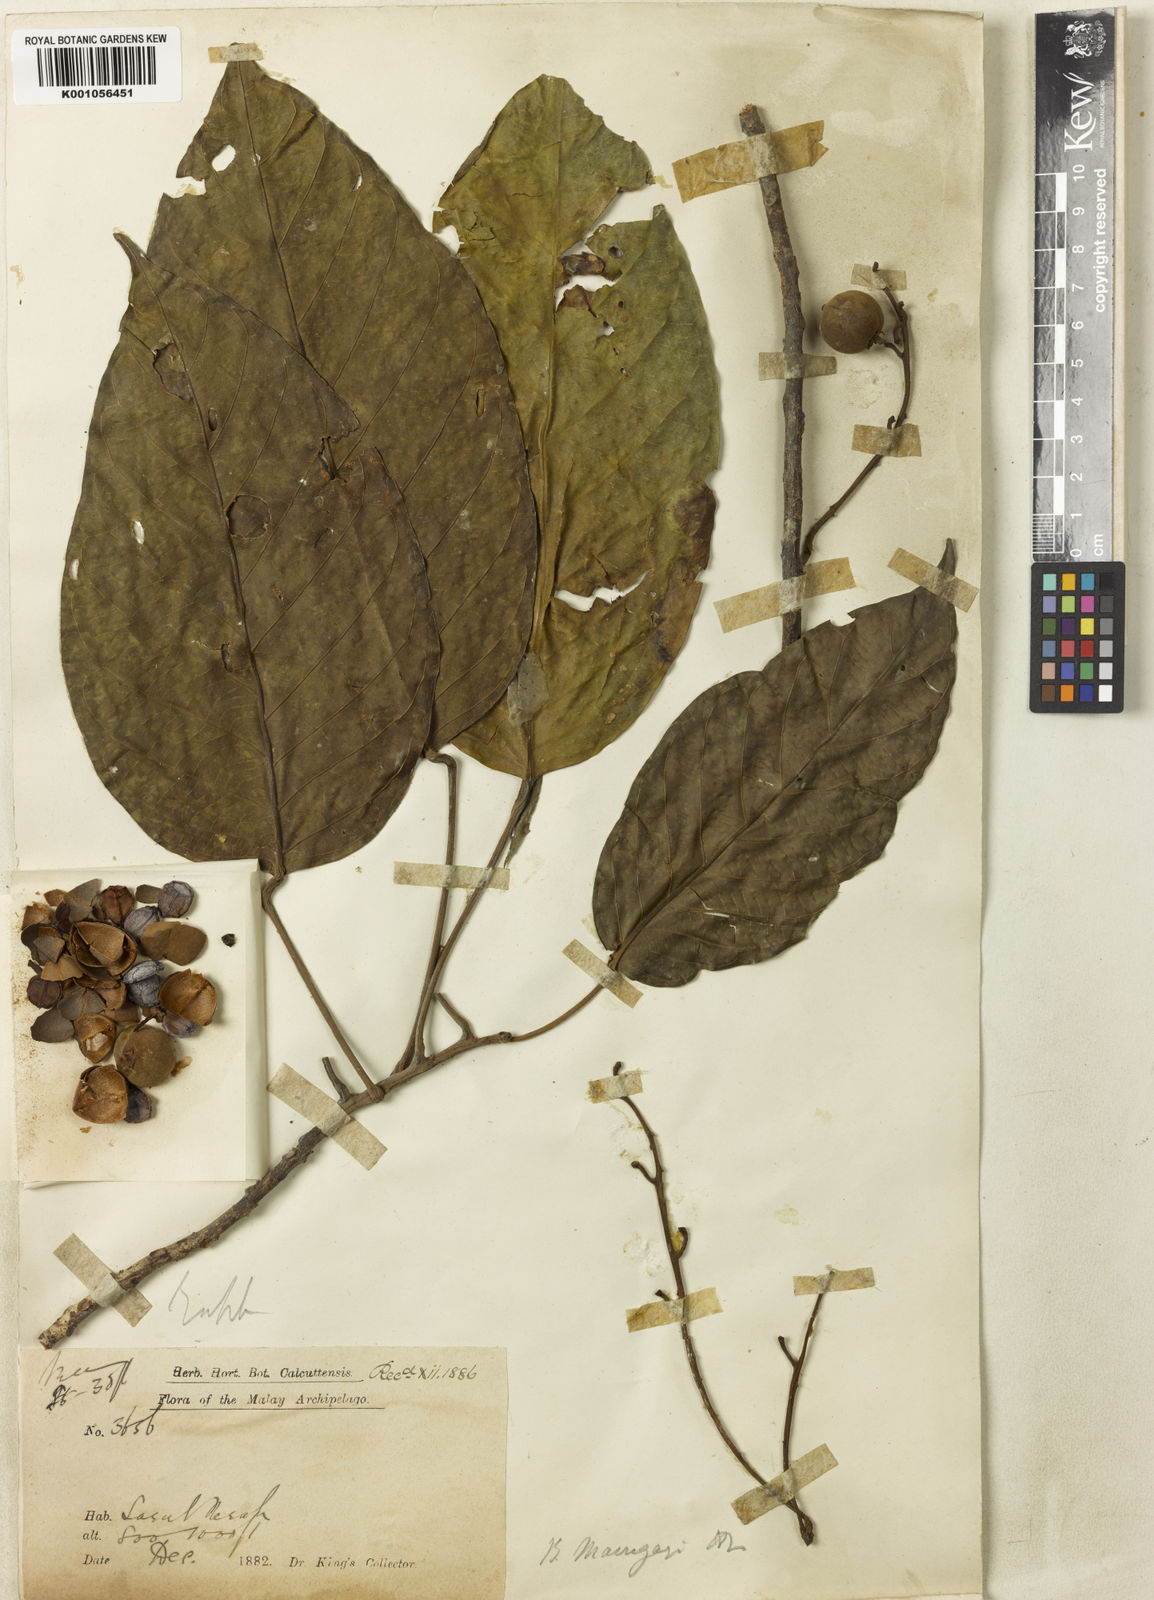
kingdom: Plantae
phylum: Tracheophyta
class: Magnoliopsida
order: Malpighiales
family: Phyllanthaceae
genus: Baccaurea
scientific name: Baccaurea maingayi
